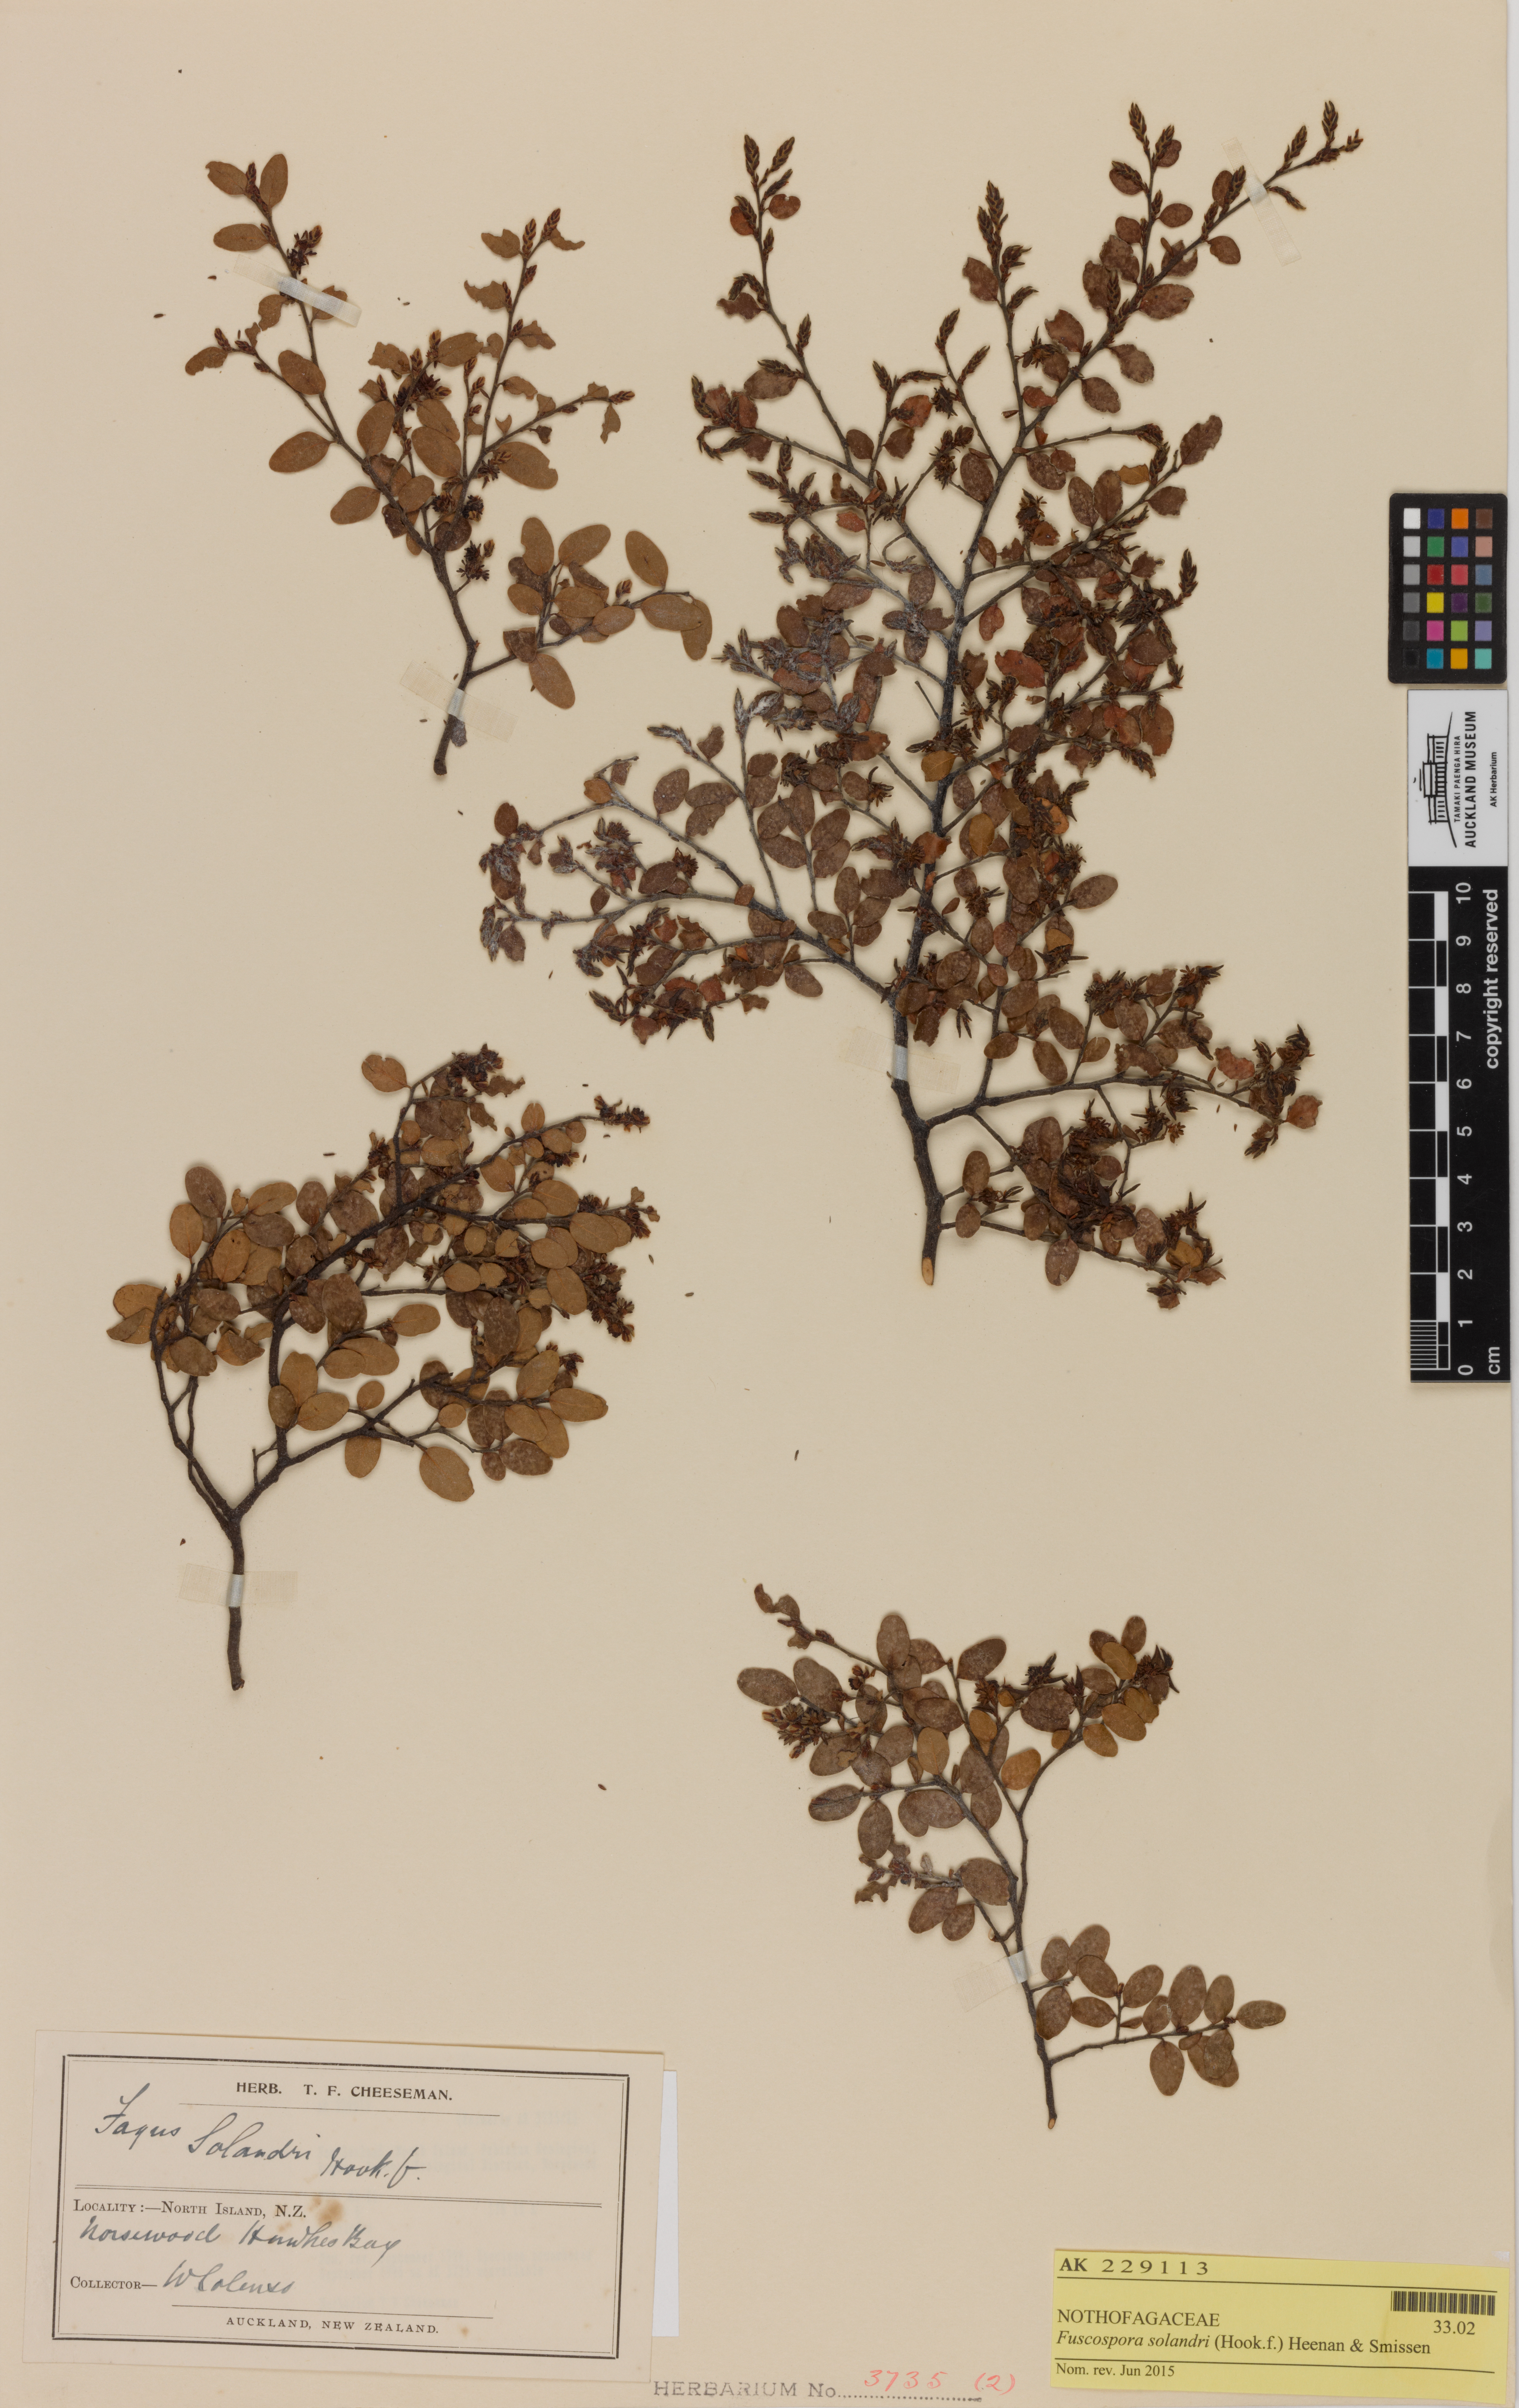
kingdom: Plantae
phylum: Tracheophyta
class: Magnoliopsida
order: Fagales
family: Nothofagaceae
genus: Nothofagus
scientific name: Nothofagus solandri
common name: Black beech
